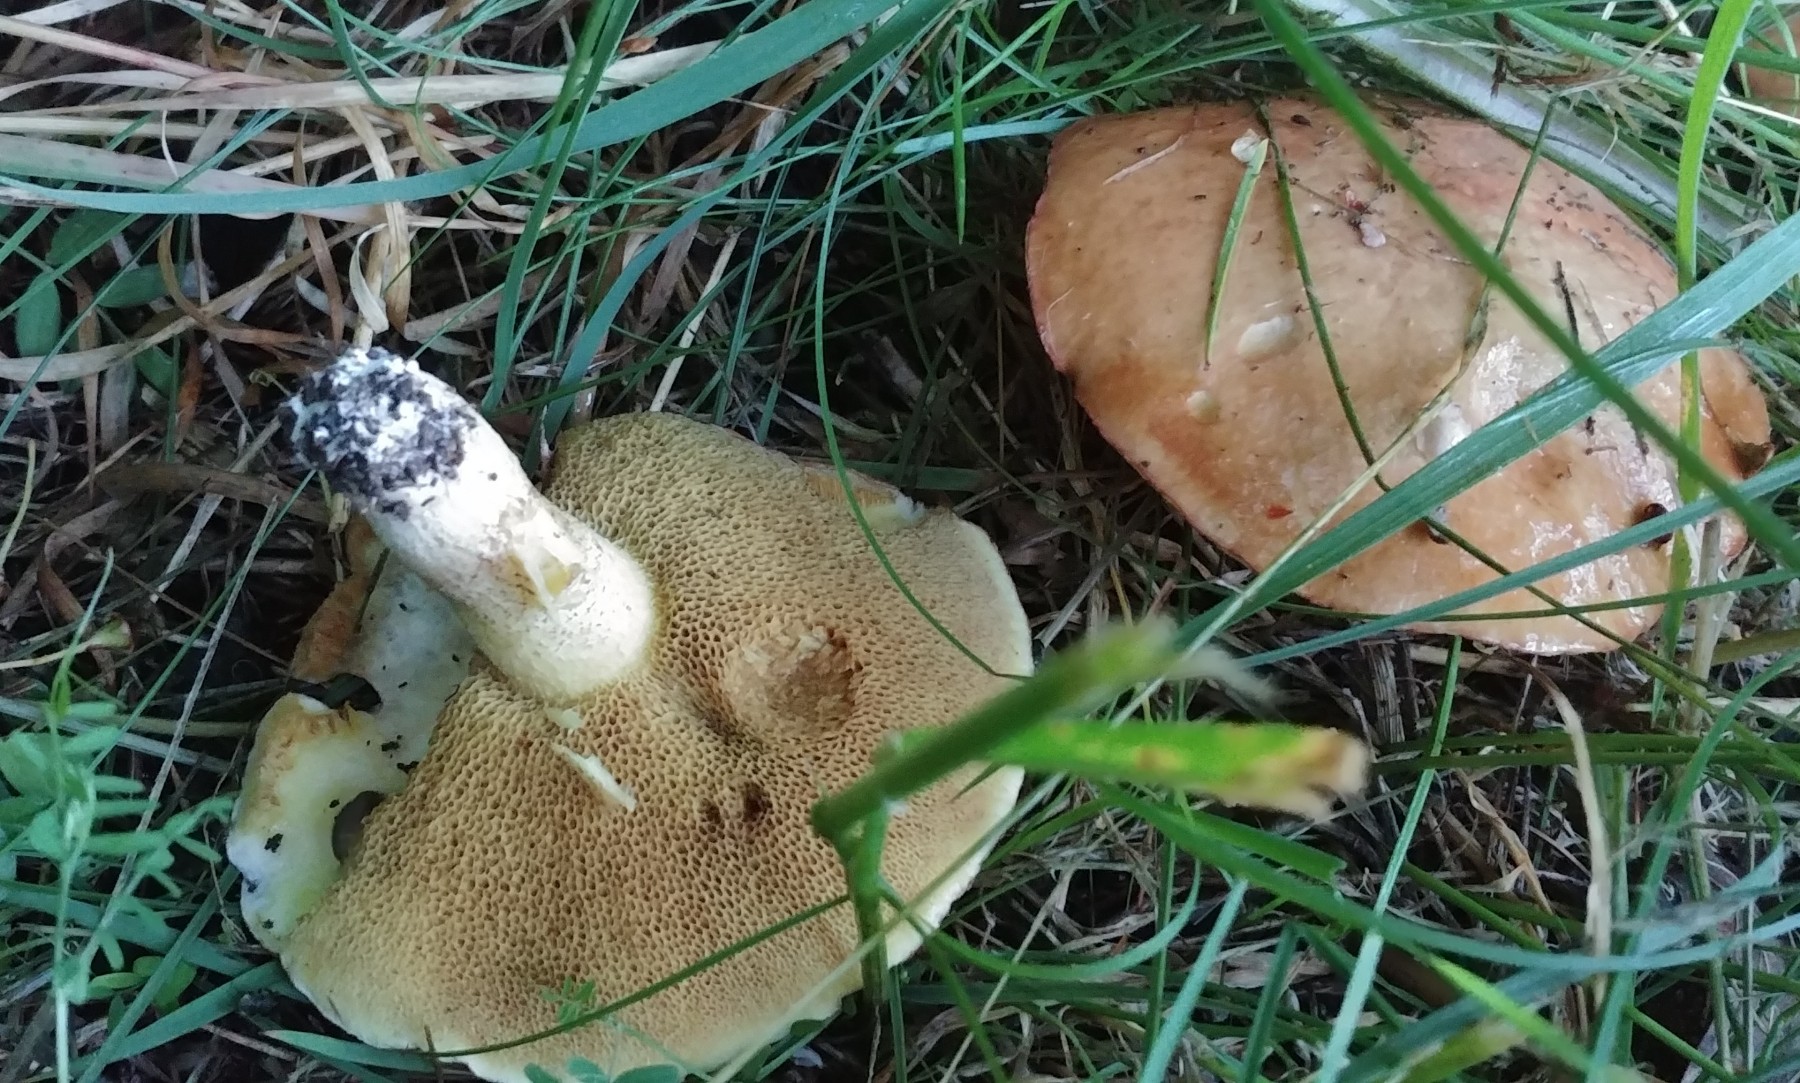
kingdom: Fungi
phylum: Basidiomycota
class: Agaricomycetes
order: Boletales
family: Suillaceae
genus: Suillus
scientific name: Suillus granulatus
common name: kornet slimrørhat
